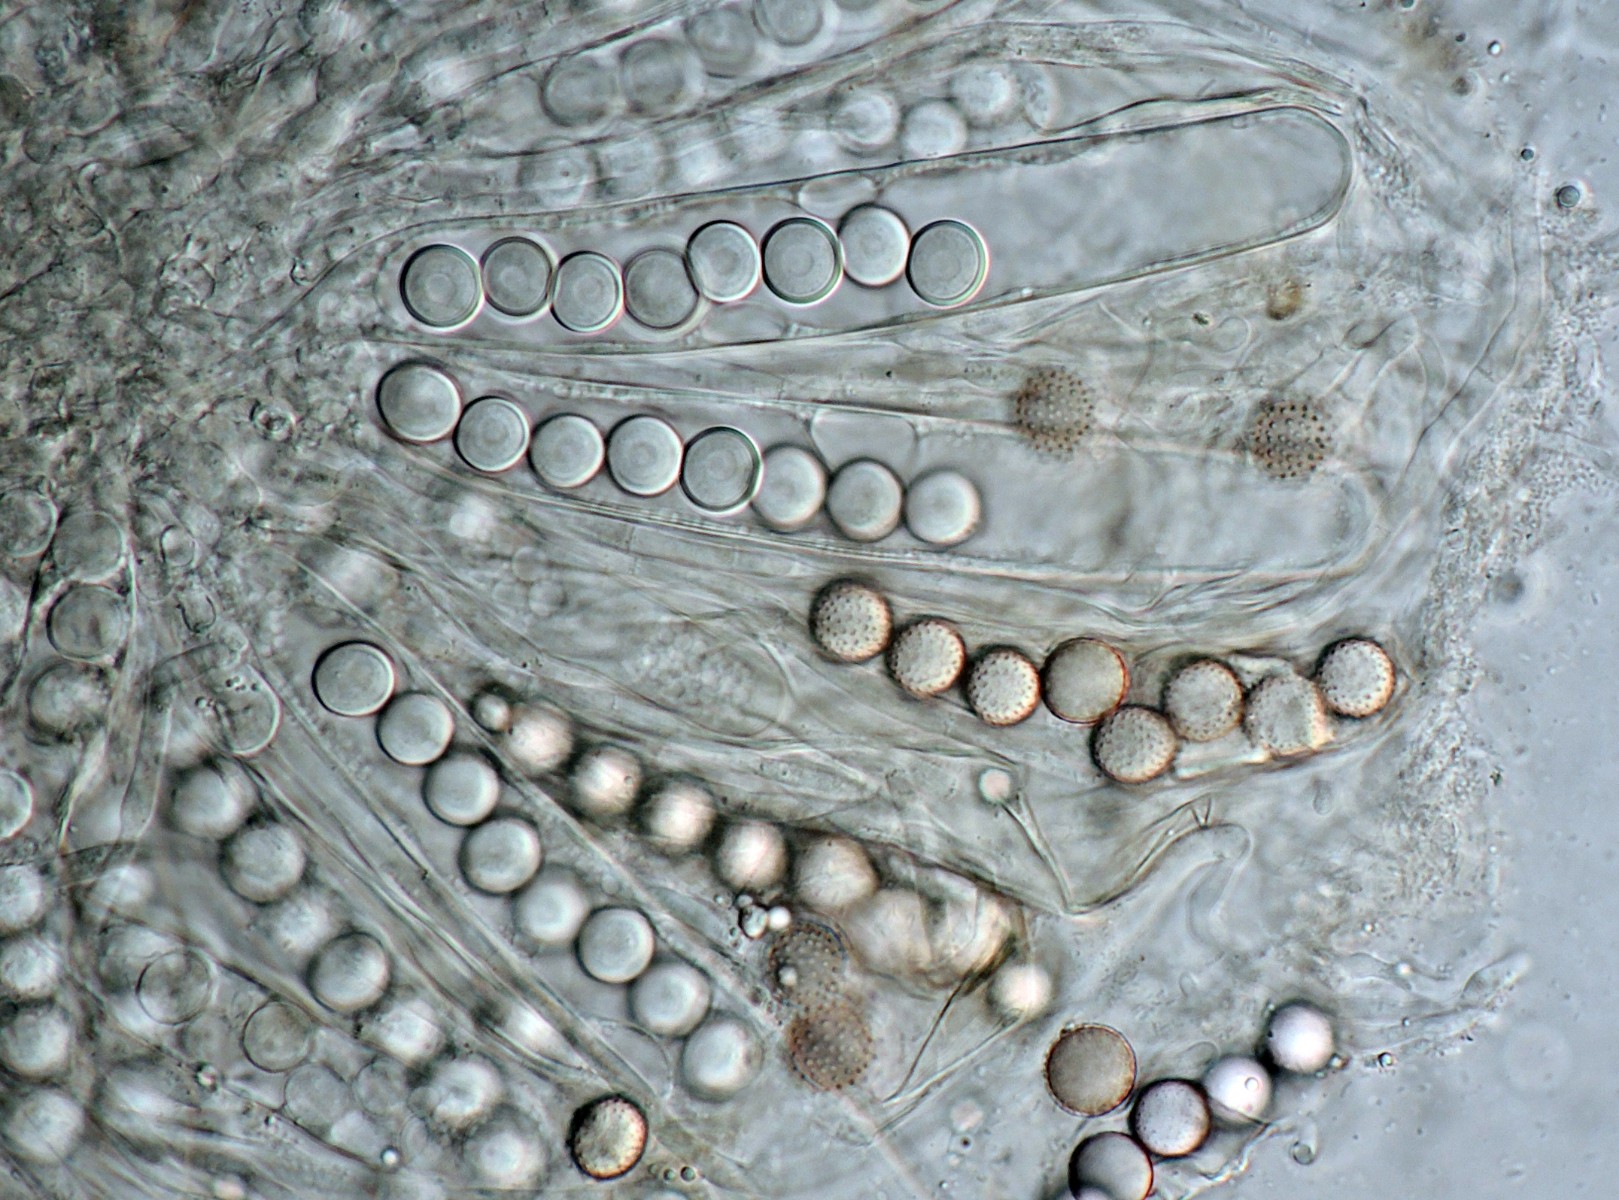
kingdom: Fungi
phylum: Ascomycota
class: Pezizomycetes
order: Pezizales
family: Ascobolaceae
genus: Ascobolus
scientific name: Ascobolus brassicae
